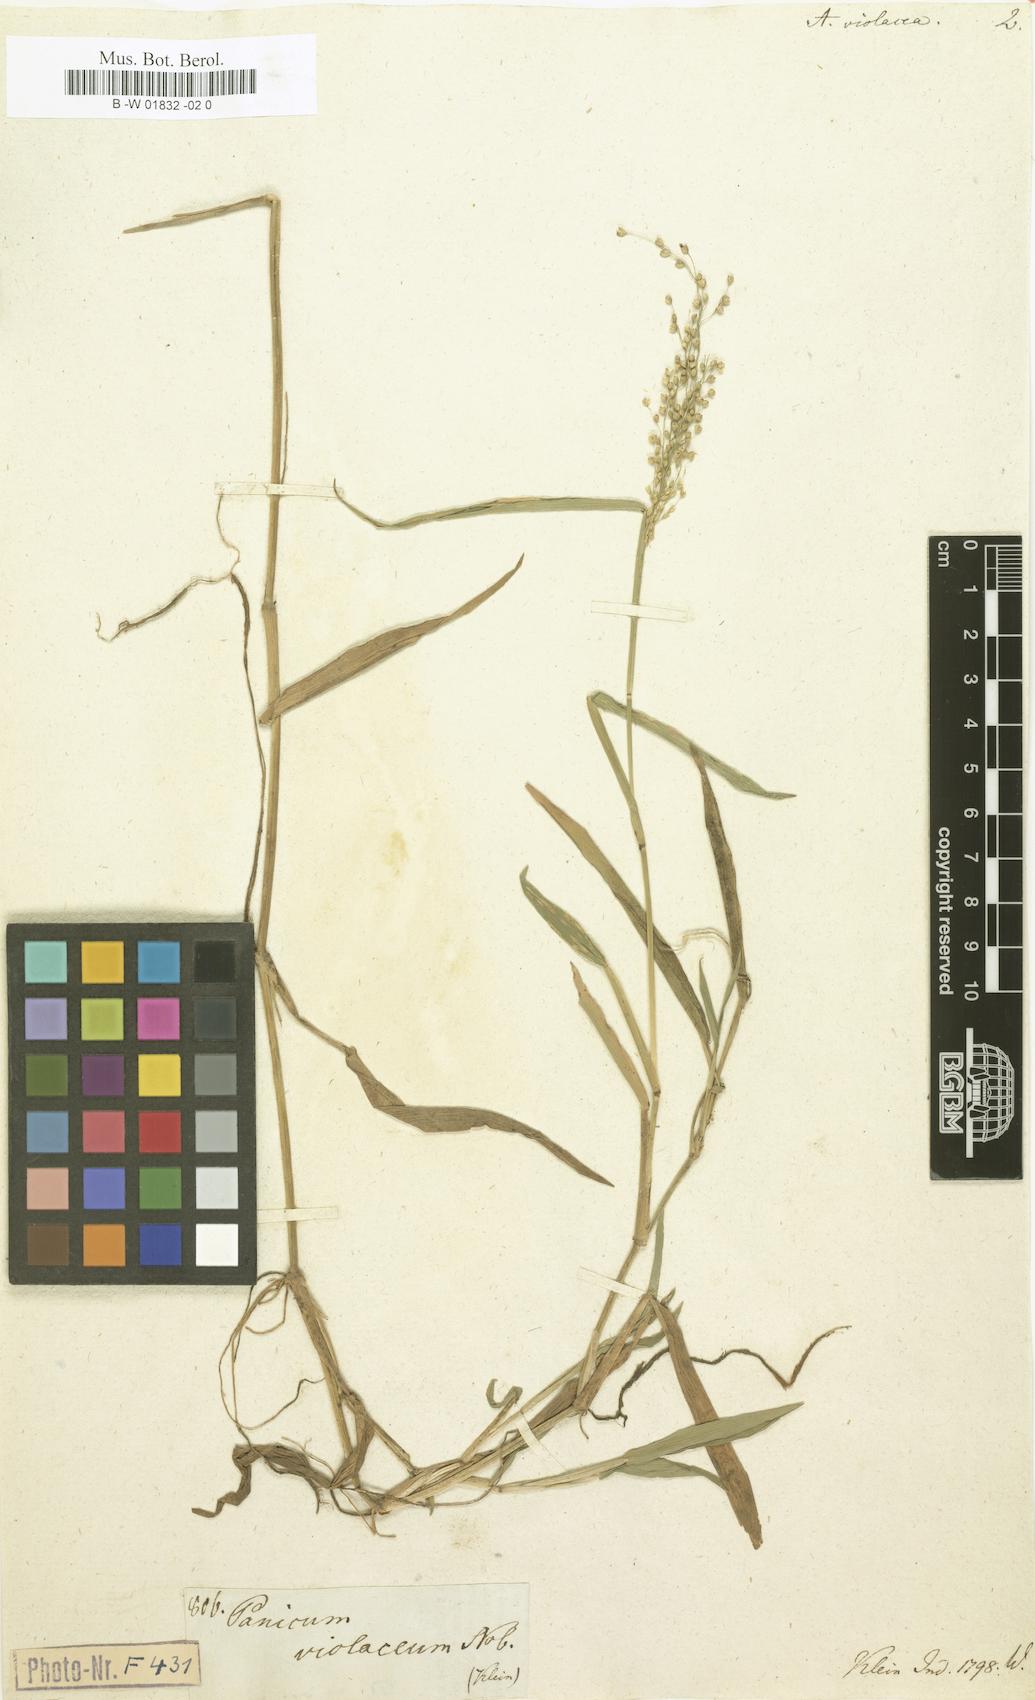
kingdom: Plantae
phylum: Tracheophyta
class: Liliopsida
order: Poales
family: Poaceae
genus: Isachne
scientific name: Isachne globosa
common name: Swamp millet
